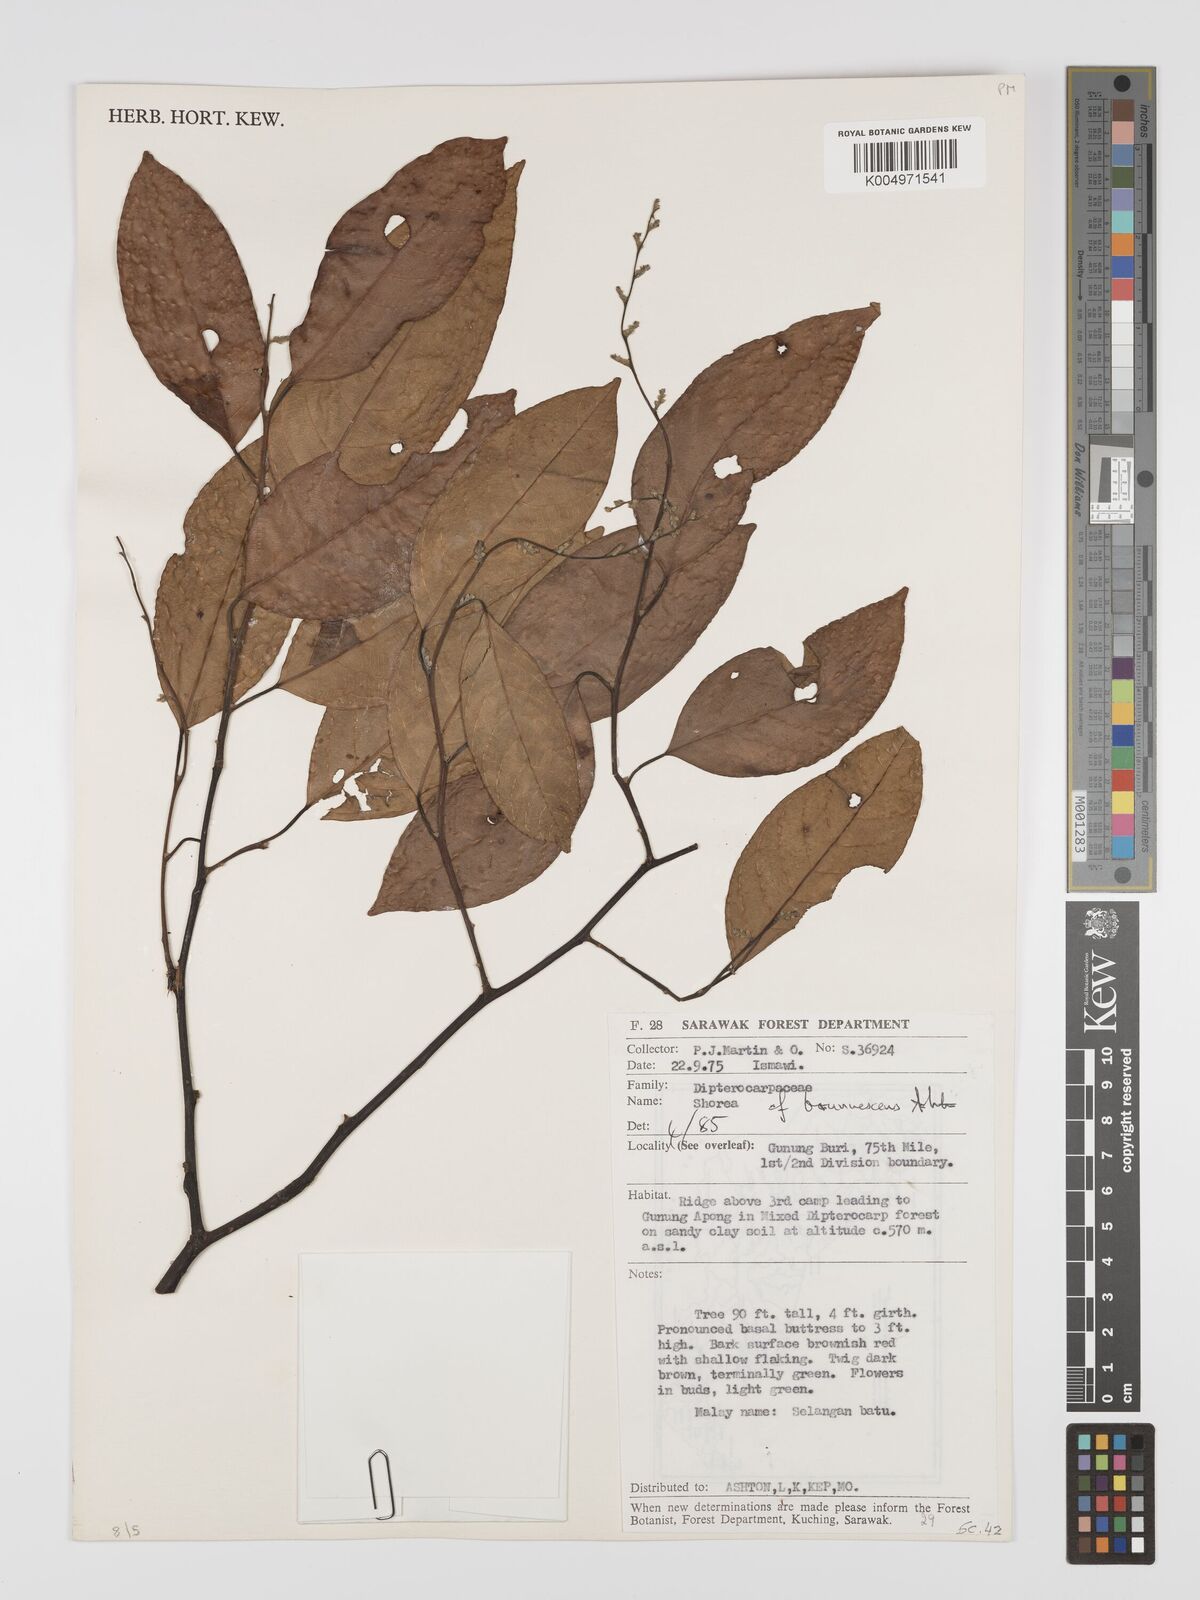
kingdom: Plantae
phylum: Tracheophyta
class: Magnoliopsida
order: Malvales
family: Dipterocarpaceae
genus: Shorea
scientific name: Shorea brunnescens
